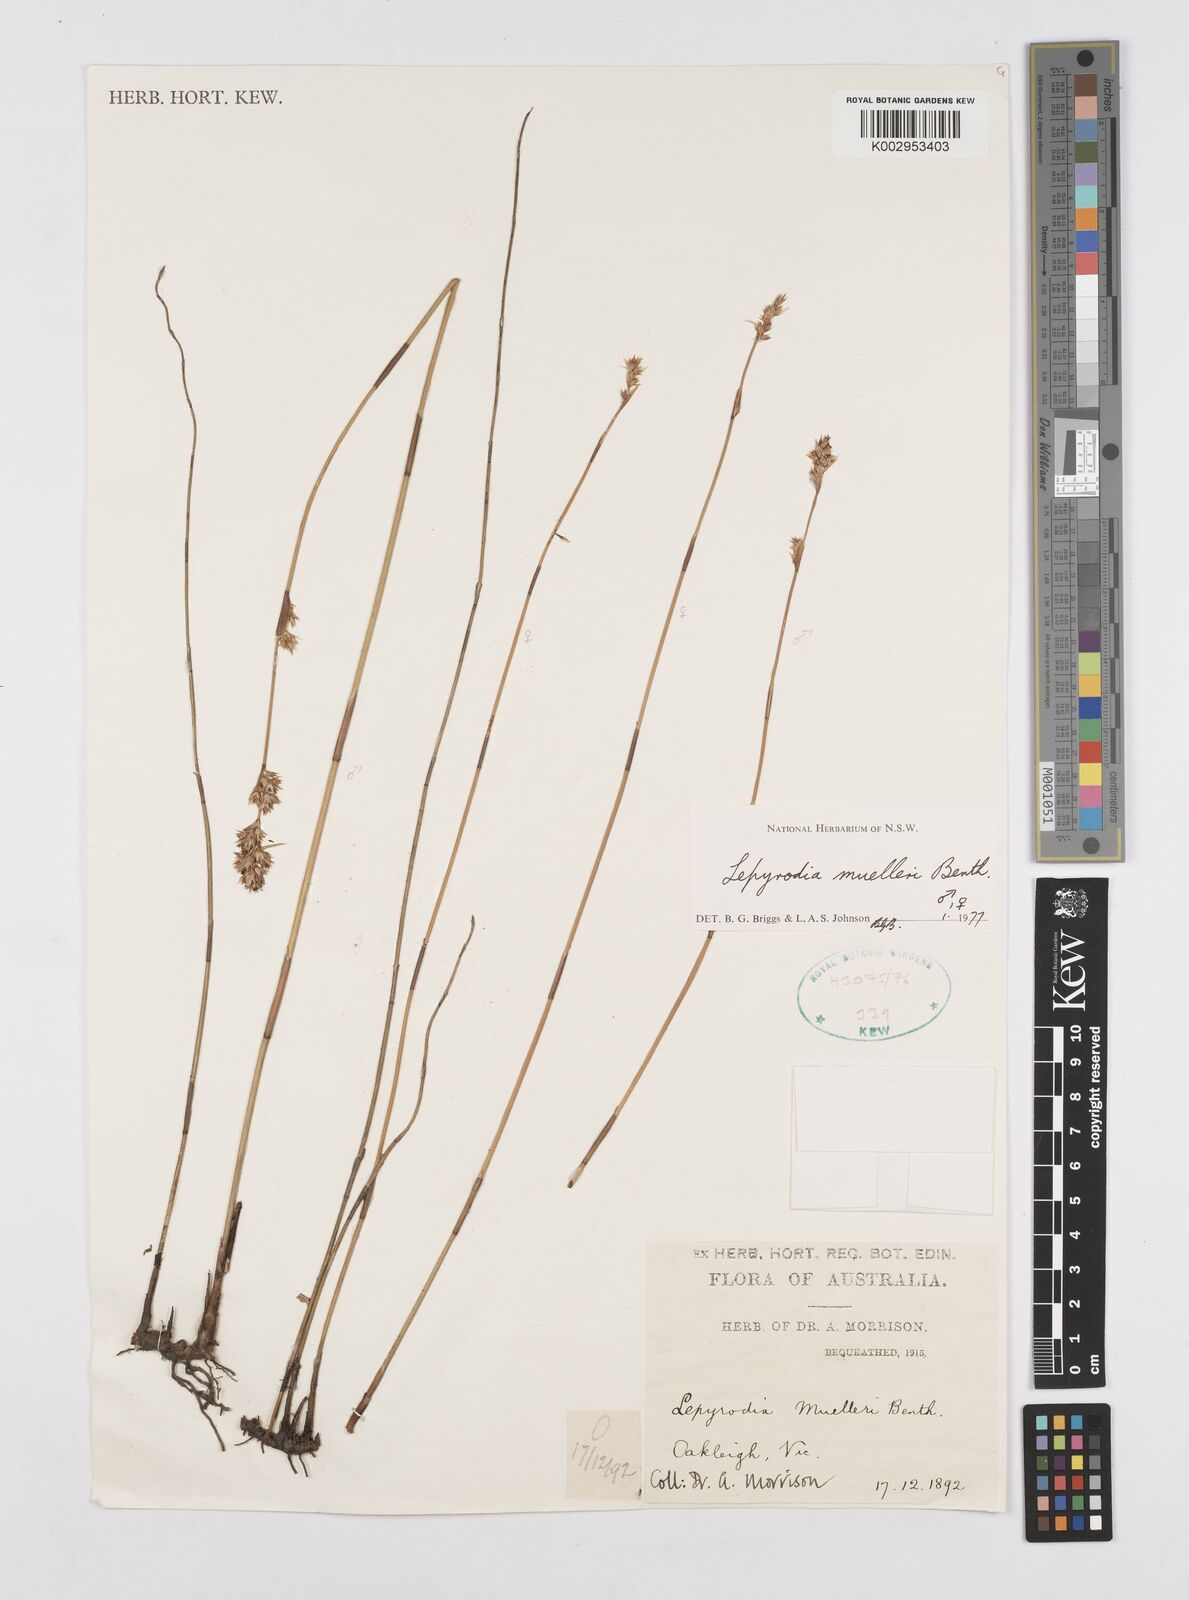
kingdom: Plantae
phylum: Tracheophyta
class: Liliopsida
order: Poales
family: Restionaceae
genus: Lepyrodia
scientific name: Lepyrodia muelleri
